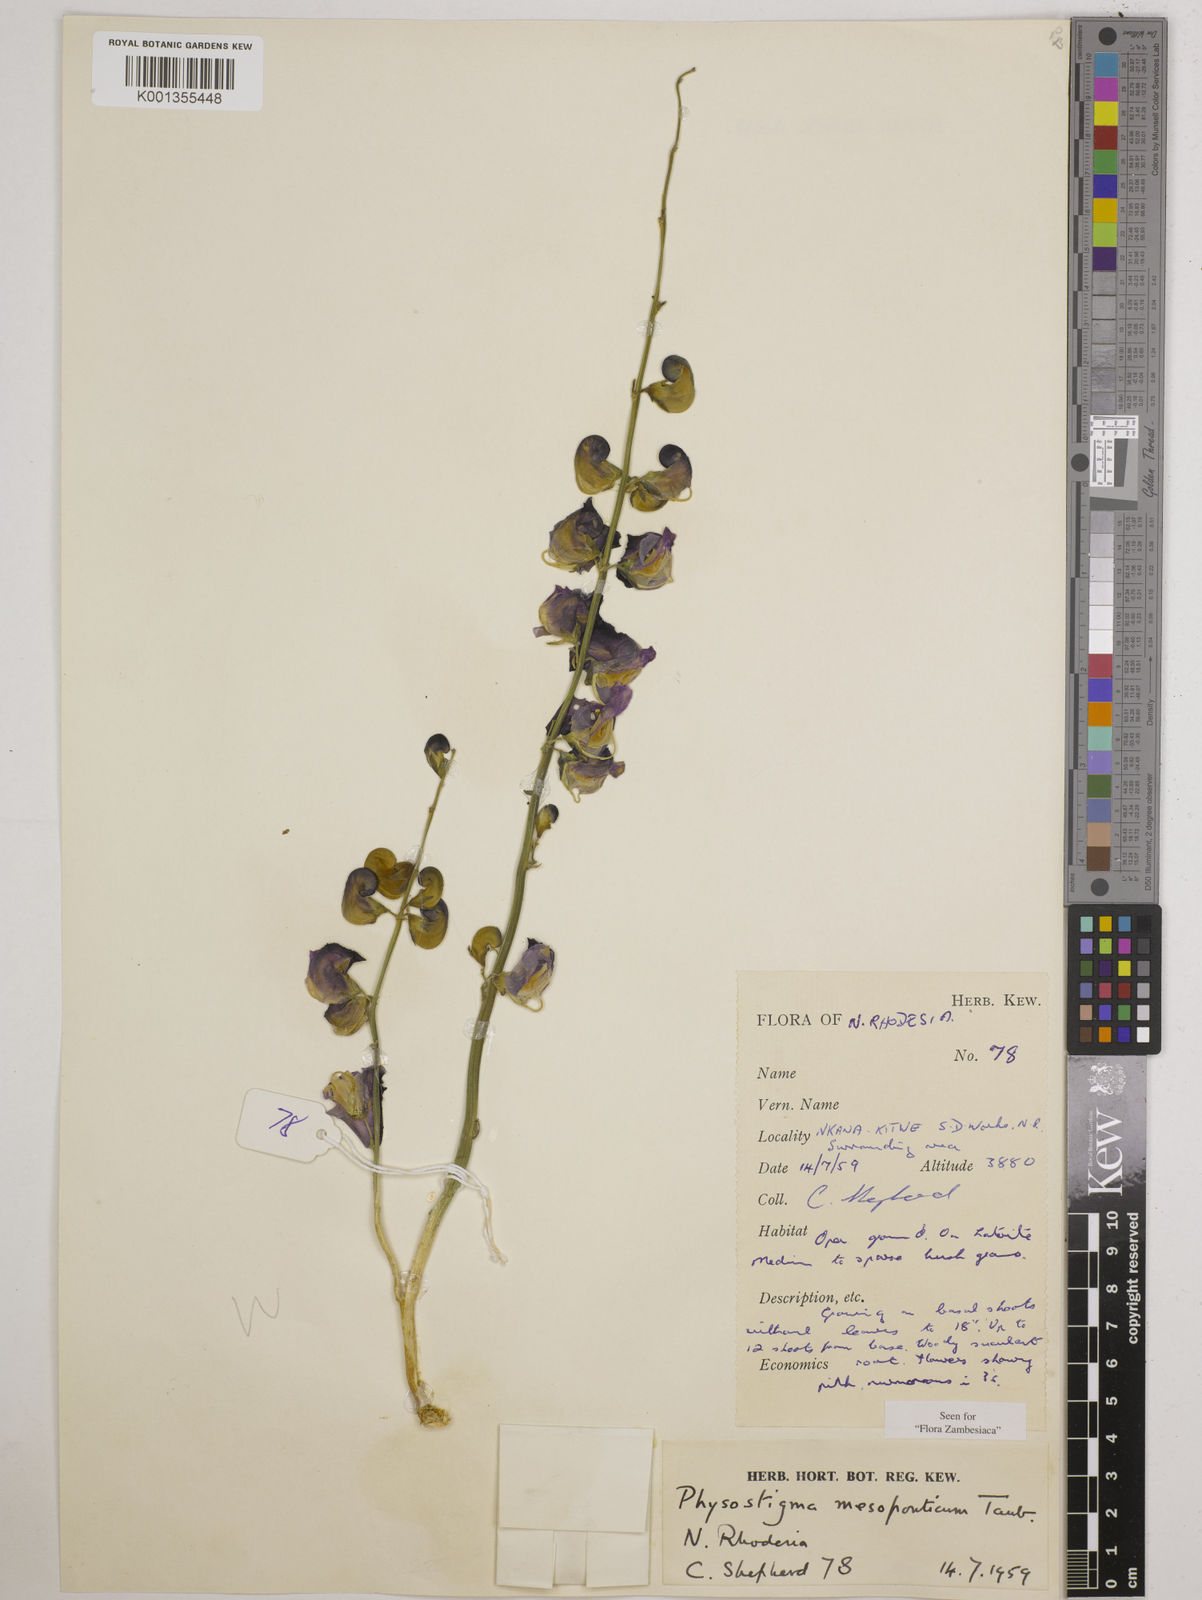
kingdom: Plantae
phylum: Tracheophyta
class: Magnoliopsida
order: Fabales
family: Fabaceae
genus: Physostigma
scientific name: Physostigma mesoponticum
